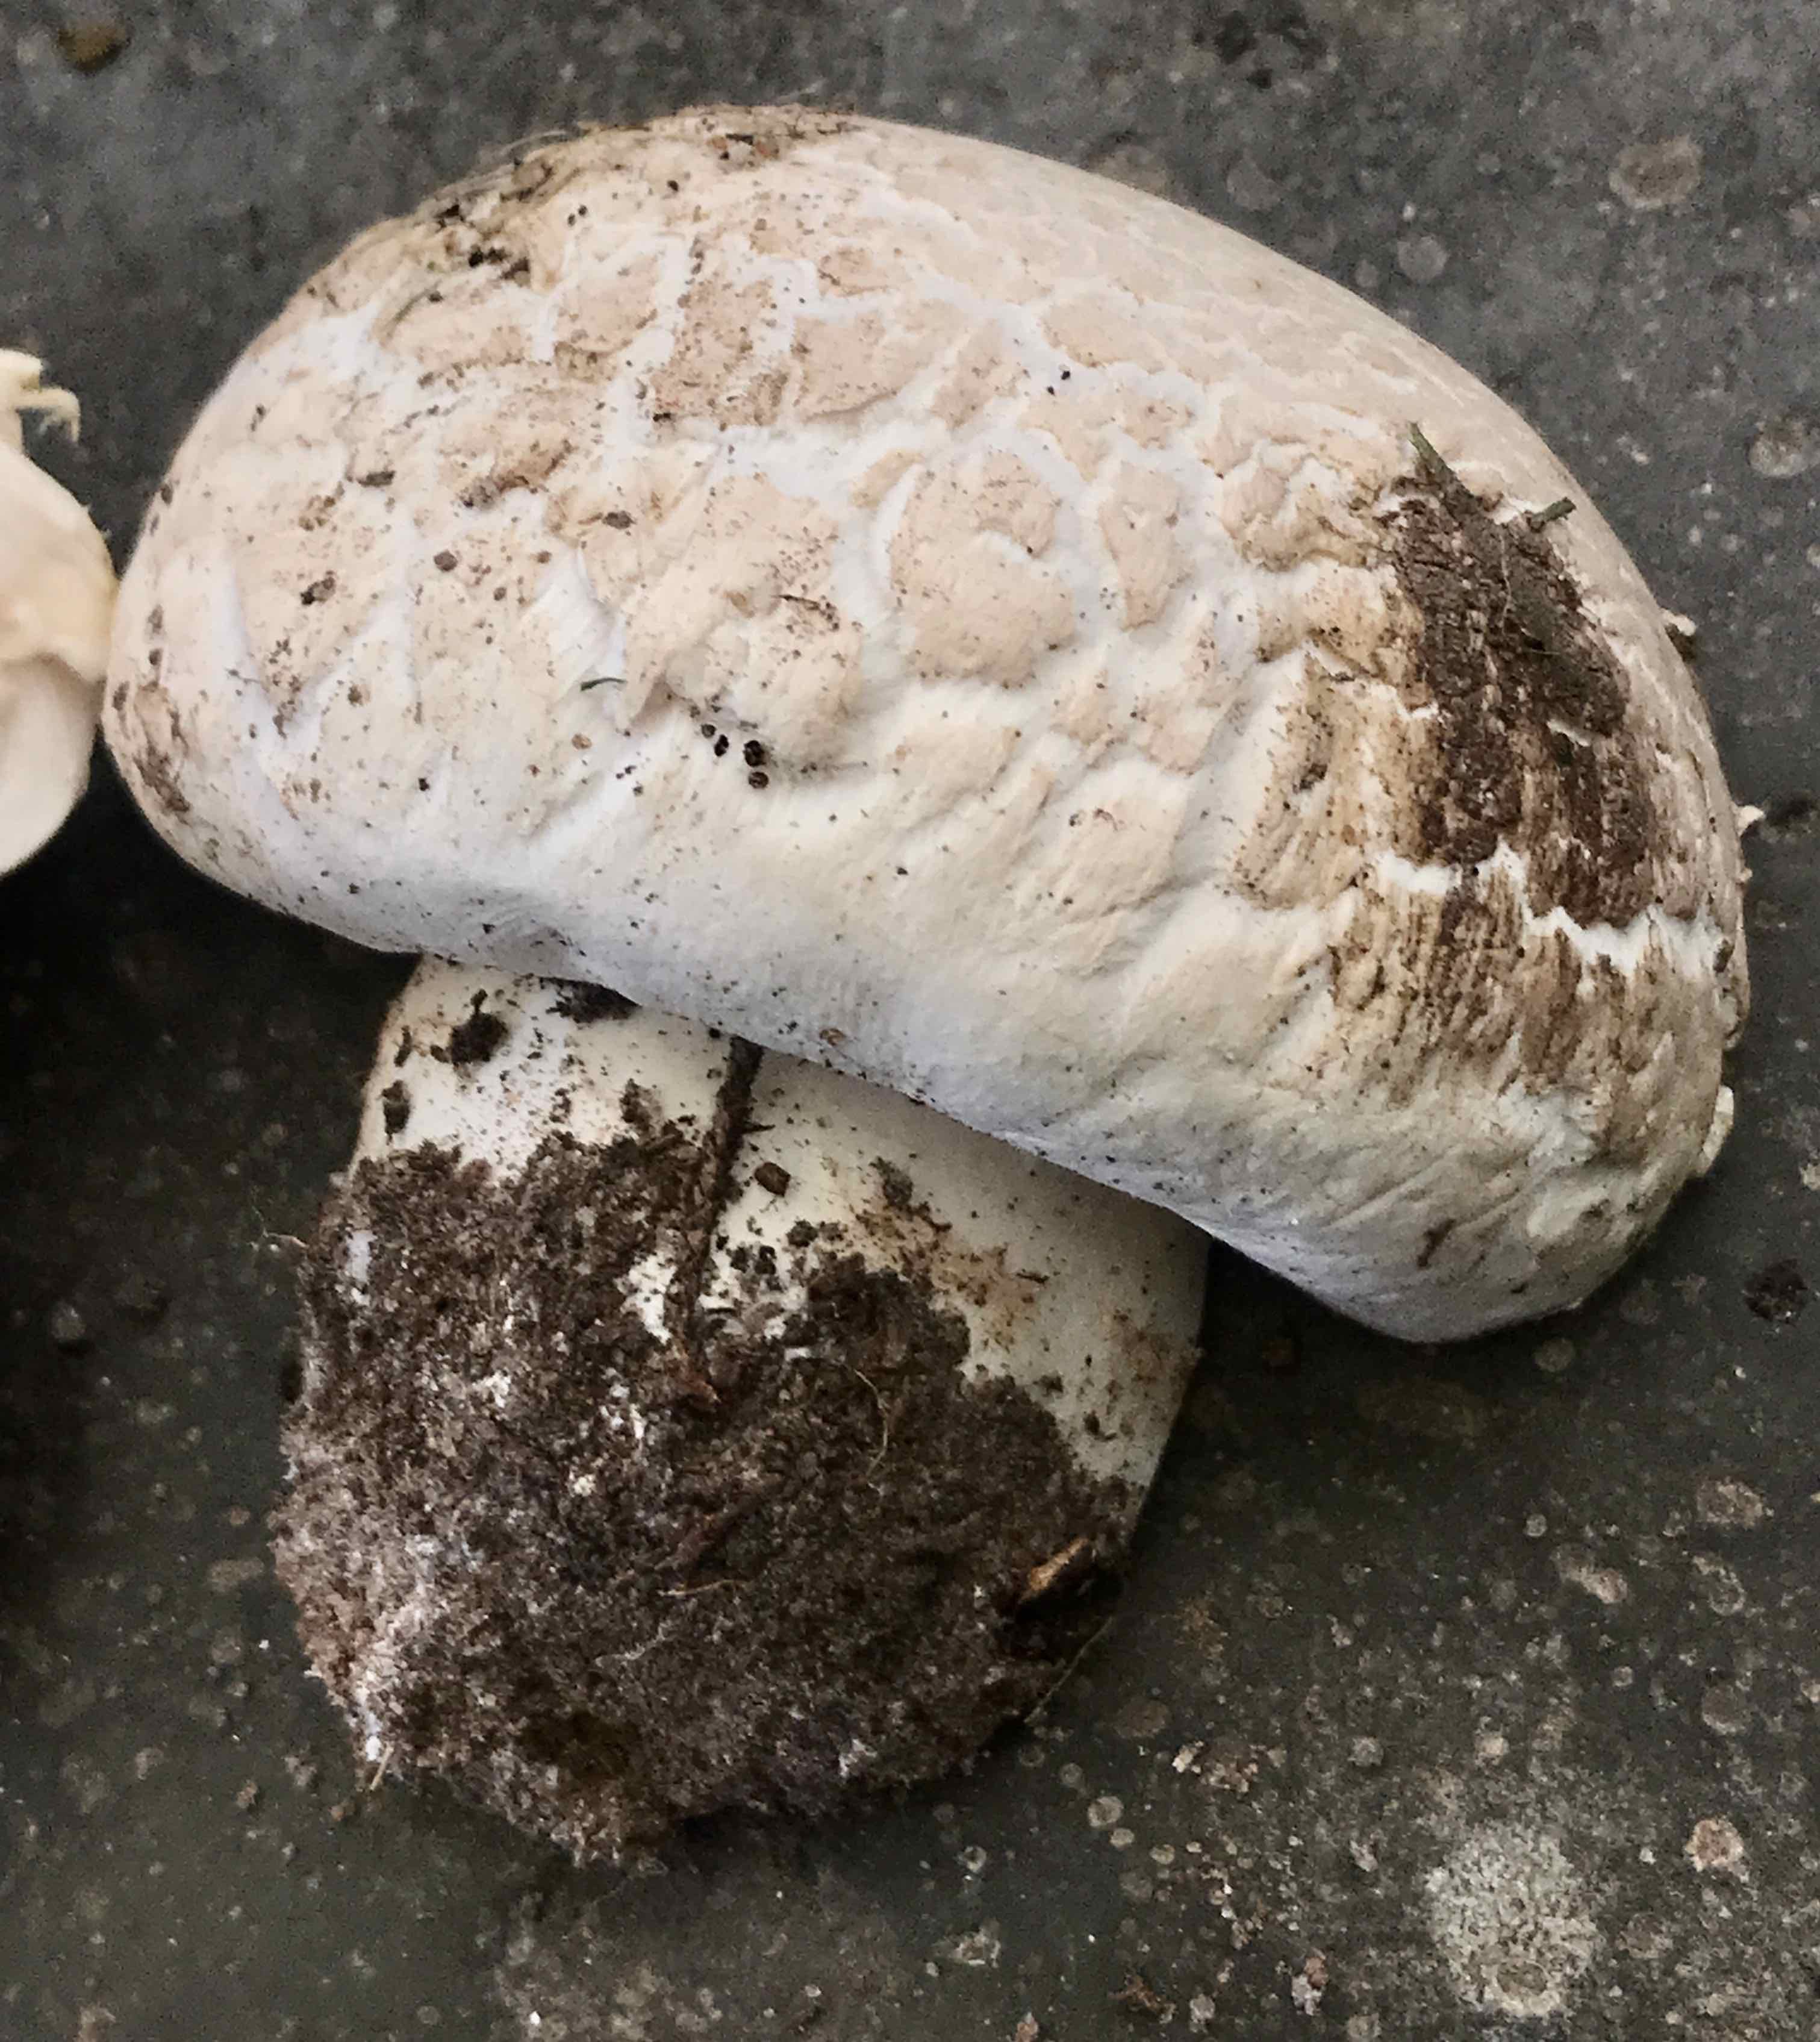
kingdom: Fungi
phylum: Basidiomycota
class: Agaricomycetes
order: Agaricales
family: Agaricaceae
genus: Agaricus
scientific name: Agaricus bernardii
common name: strandengs-champignon
